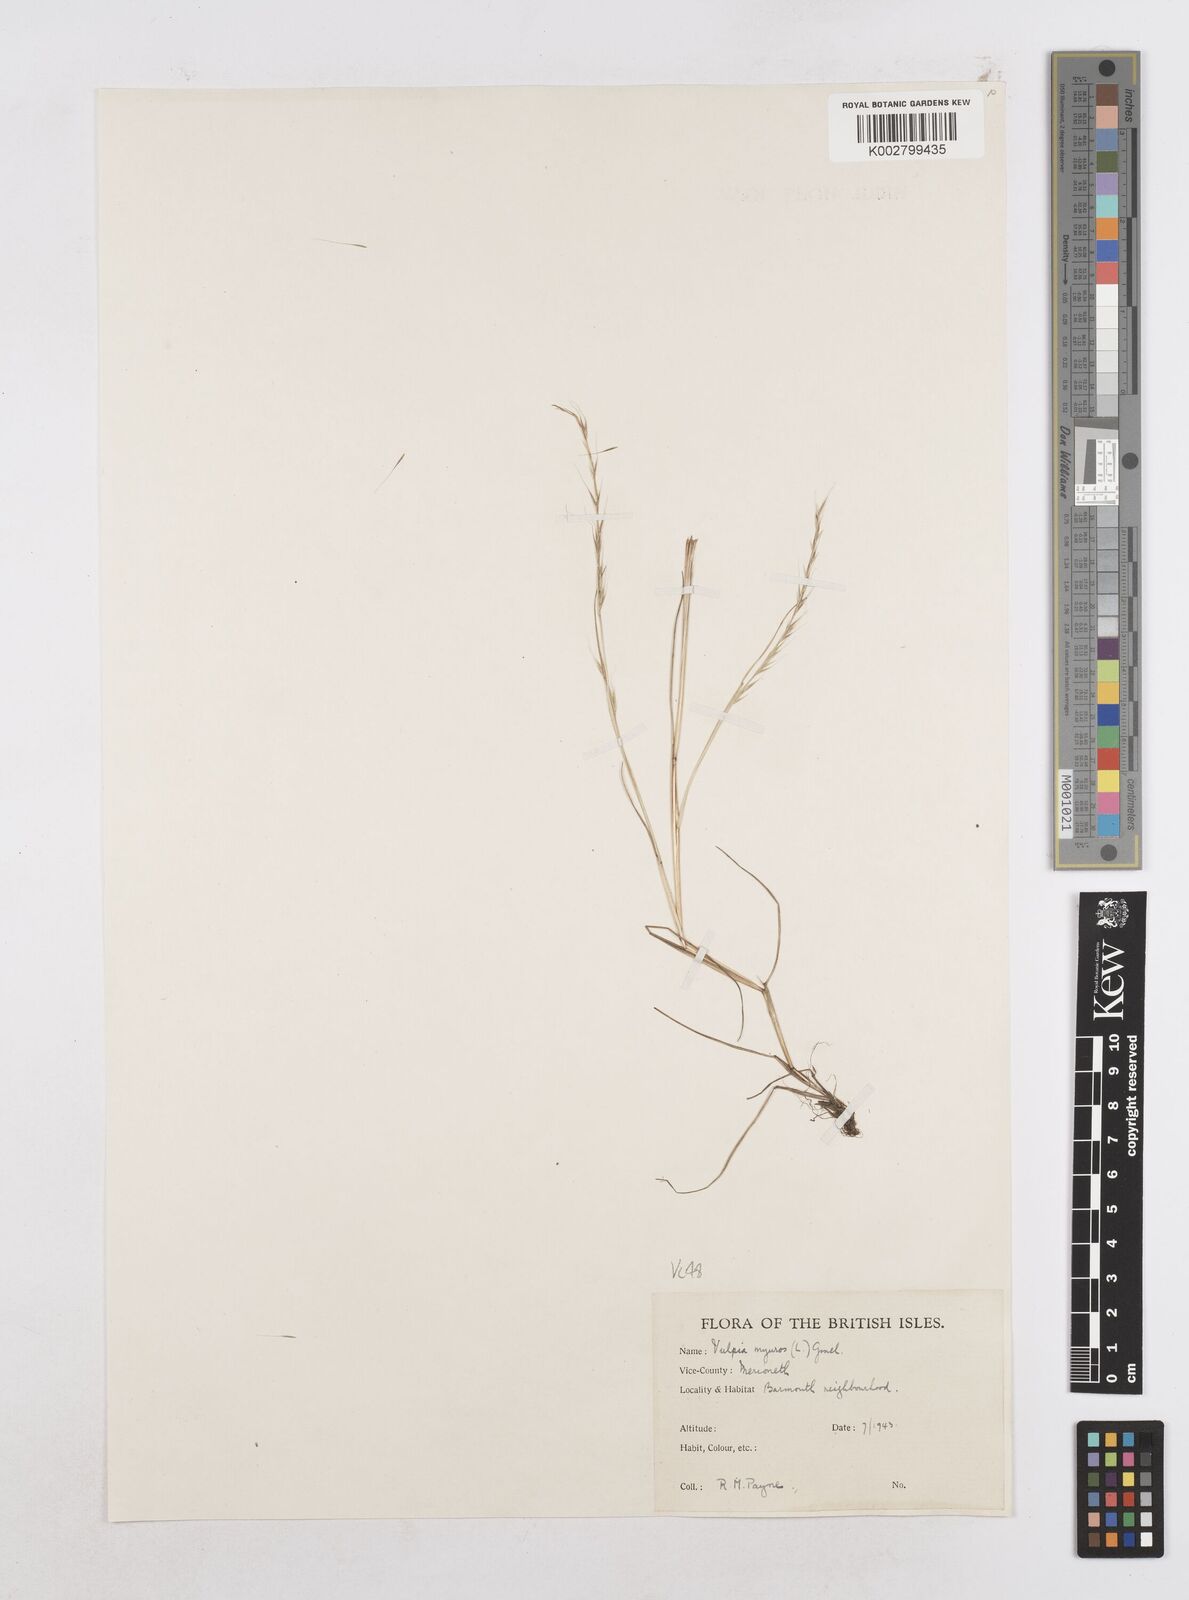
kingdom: Plantae
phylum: Tracheophyta
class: Liliopsida
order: Poales
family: Poaceae
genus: Festuca
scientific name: Festuca myuros
